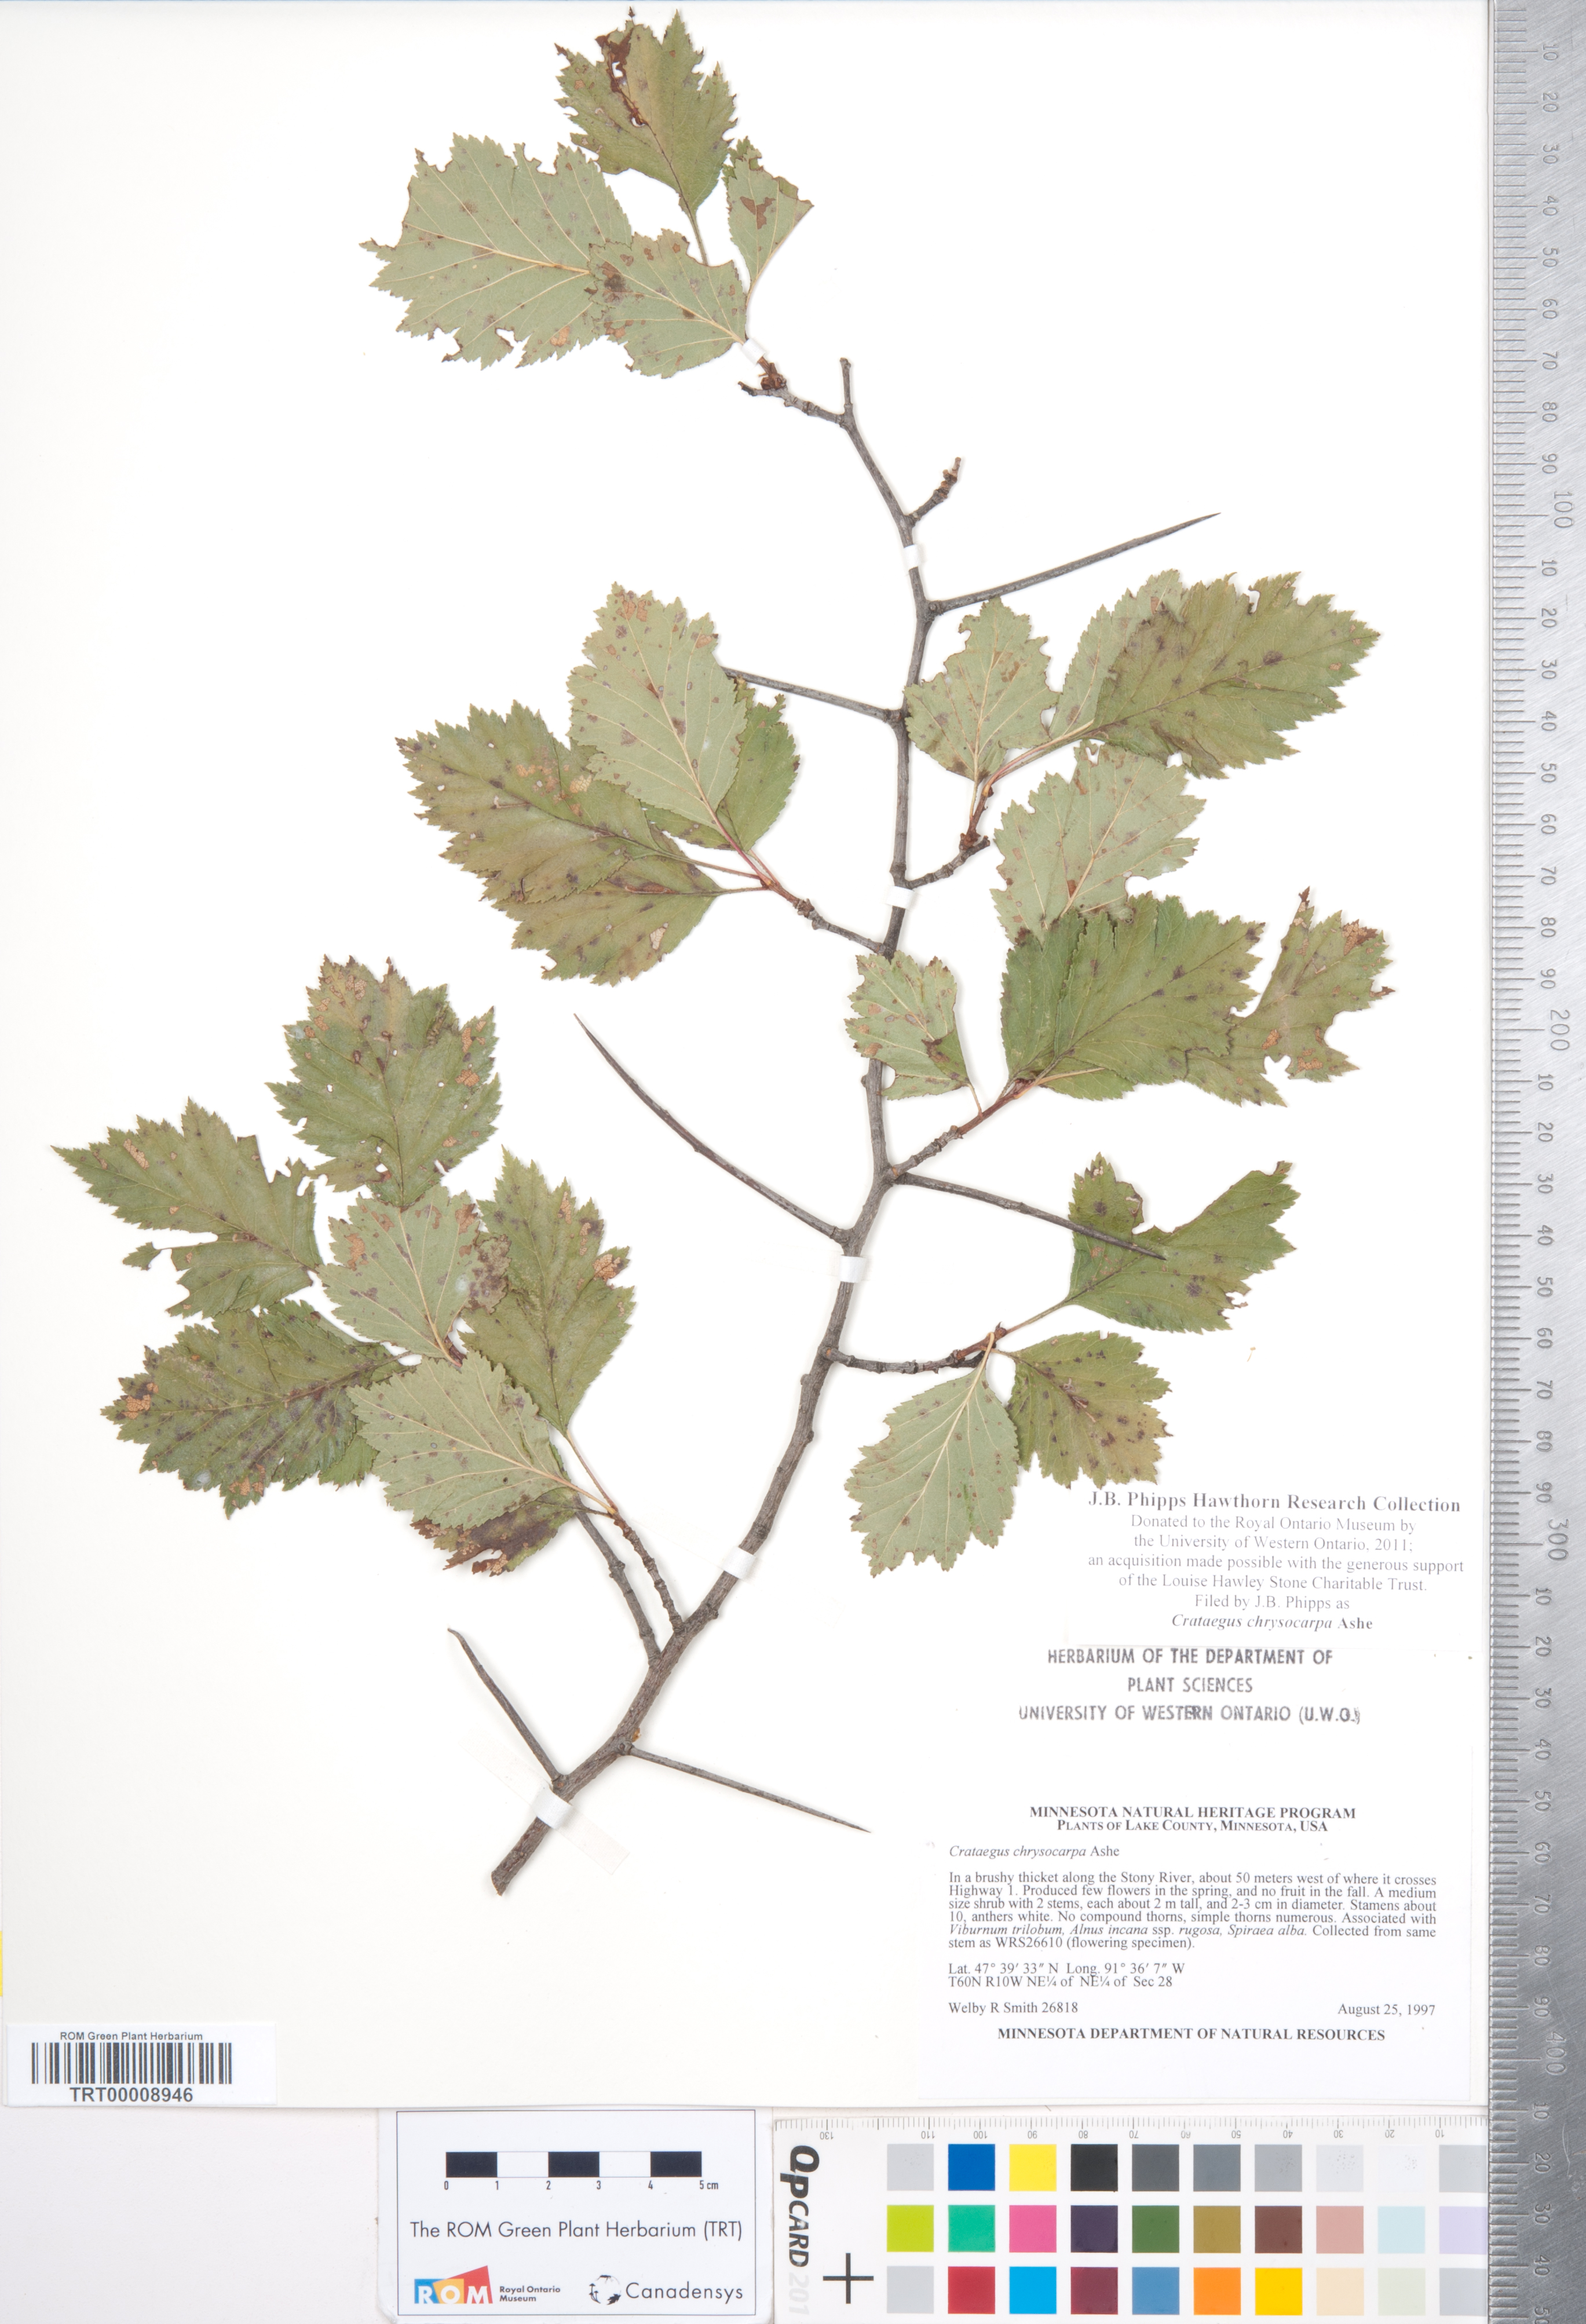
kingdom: Plantae
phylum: Tracheophyta
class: Magnoliopsida
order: Rosales
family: Rosaceae
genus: Crataegus
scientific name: Crataegus chrysocarpa
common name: Fire-berry hawthorn
